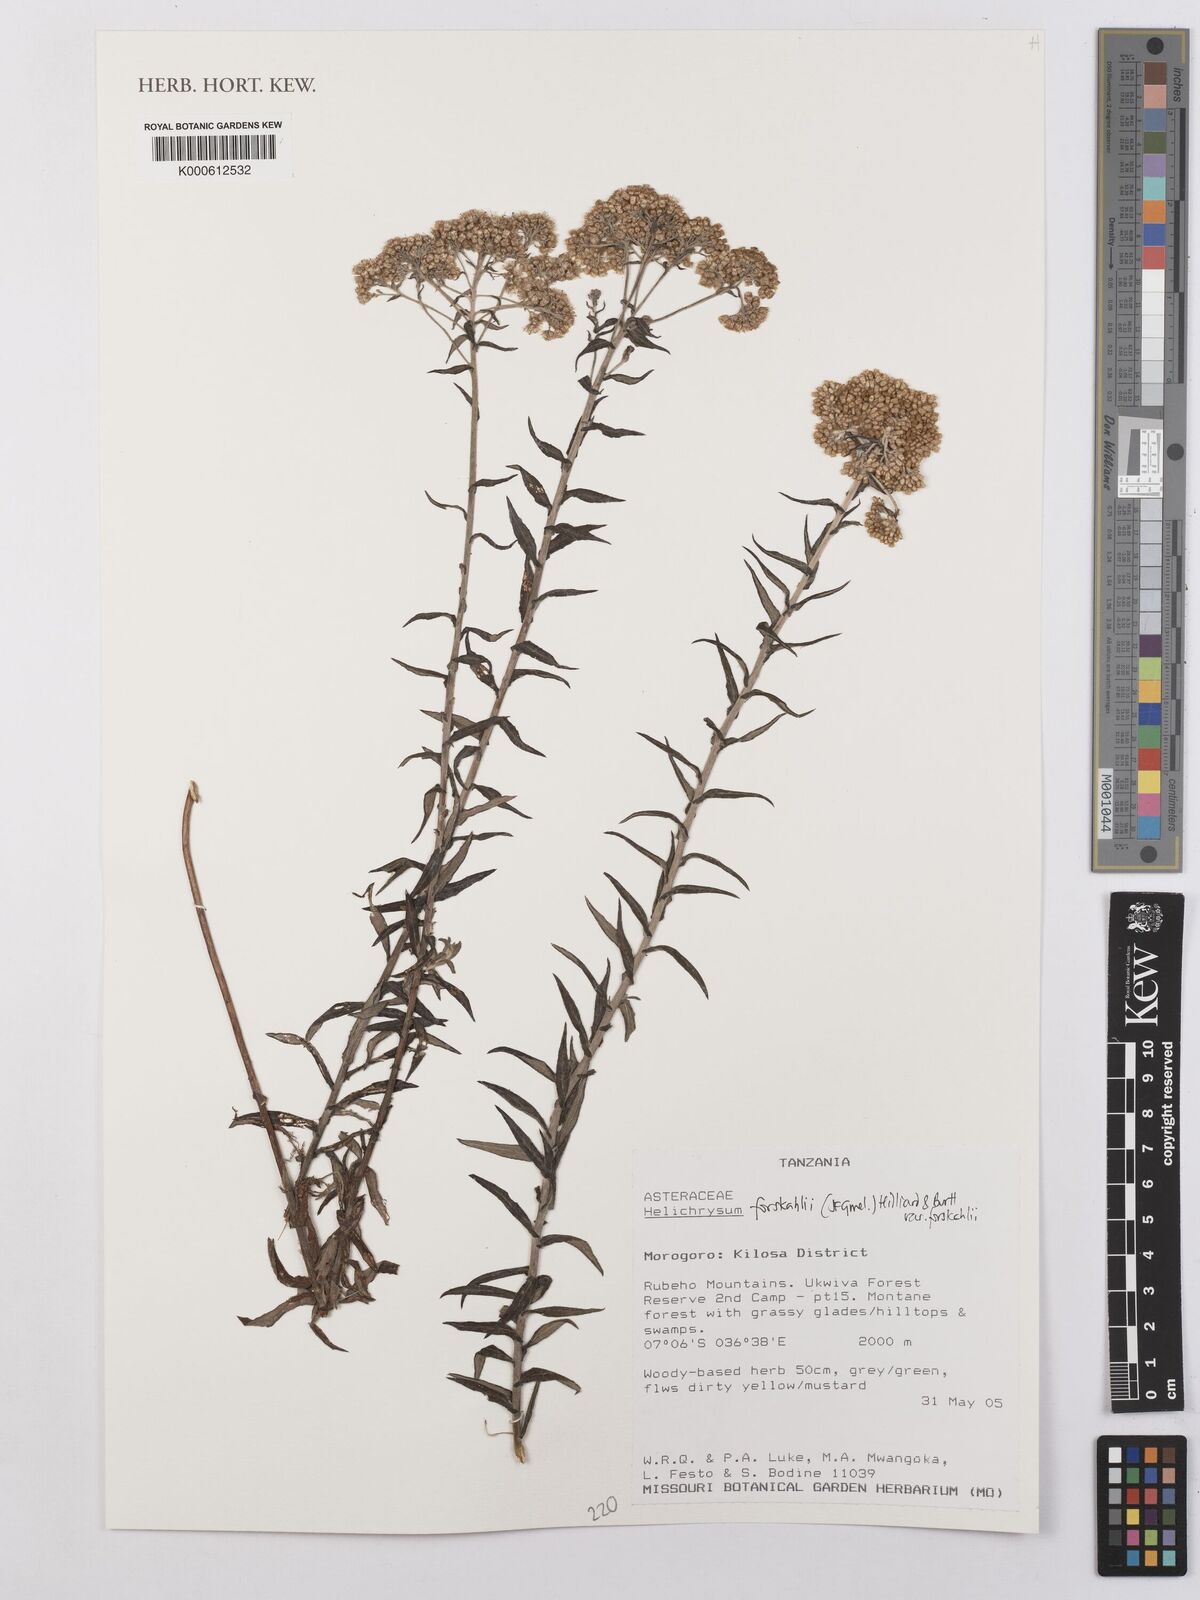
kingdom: Plantae
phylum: Tracheophyta
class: Magnoliopsida
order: Asterales
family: Asteraceae
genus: Helichrysum
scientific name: Helichrysum forskahlii
